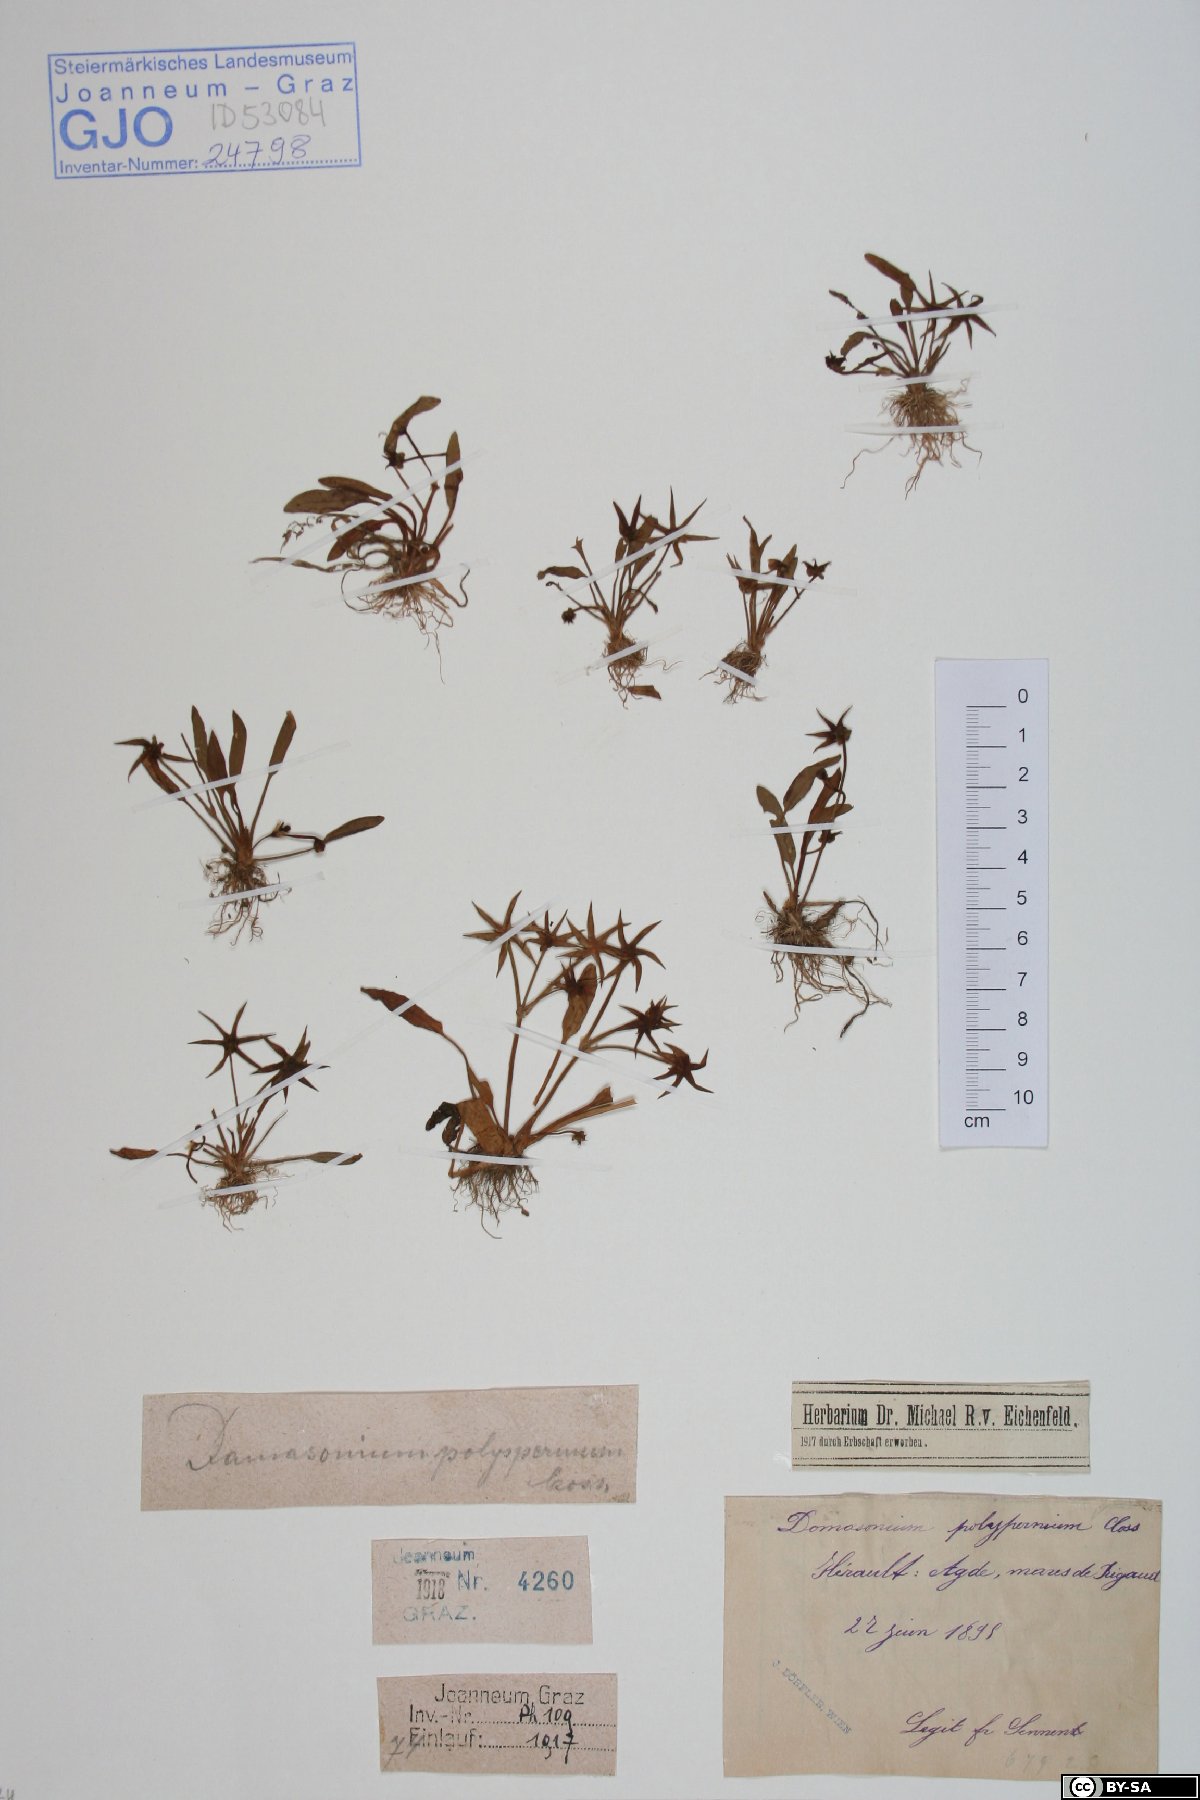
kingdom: Plantae
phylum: Tracheophyta
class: Liliopsida
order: Alismatales
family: Alismataceae
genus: Damasonium
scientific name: Damasonium polyspermum
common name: Starfruit
